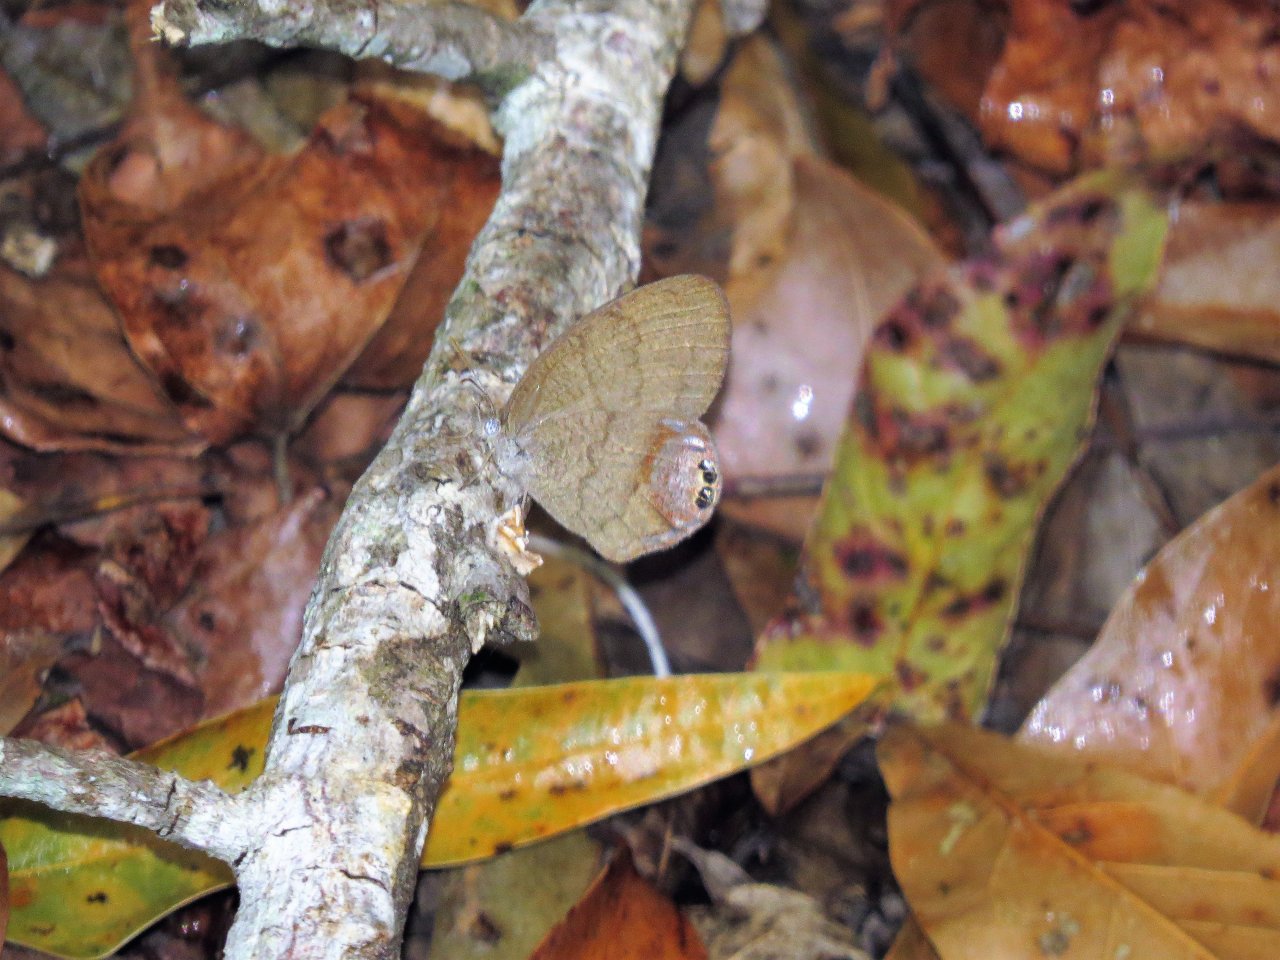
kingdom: Animalia
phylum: Arthropoda
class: Insecta
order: Lepidoptera
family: Nymphalidae
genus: Euptychia
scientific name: Euptychia cornelius
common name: Gemmed Satyr
